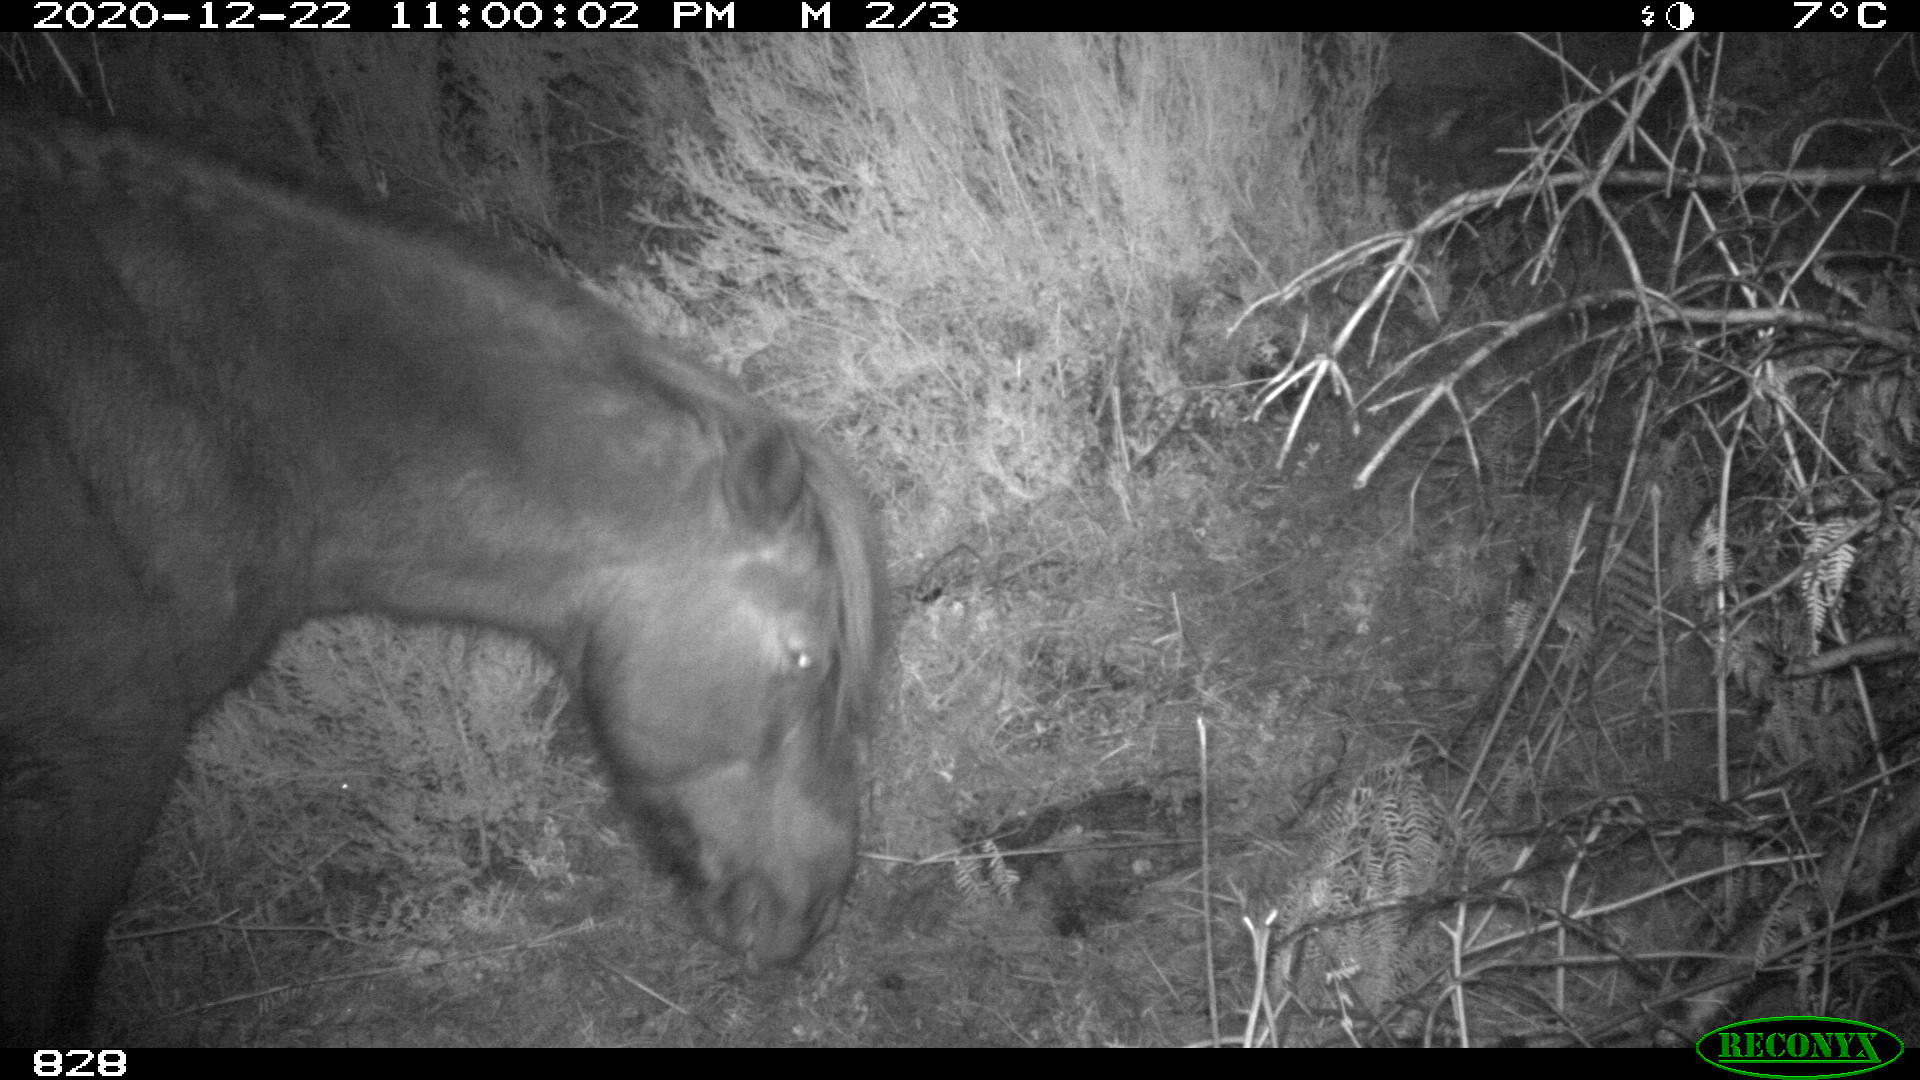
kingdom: Animalia
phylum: Chordata
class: Mammalia
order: Perissodactyla
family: Equidae
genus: Equus
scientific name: Equus caballus
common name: Horse
